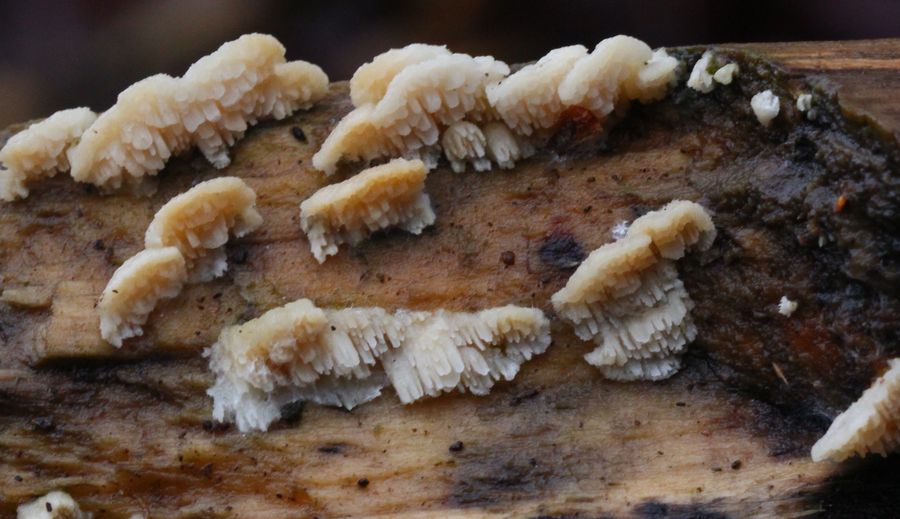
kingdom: Fungi
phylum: Basidiomycota
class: Agaricomycetes
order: Polyporales
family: Steccherinaceae
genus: Steccherinum
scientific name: Steccherinum oreophilum
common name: kvist-skønpig
